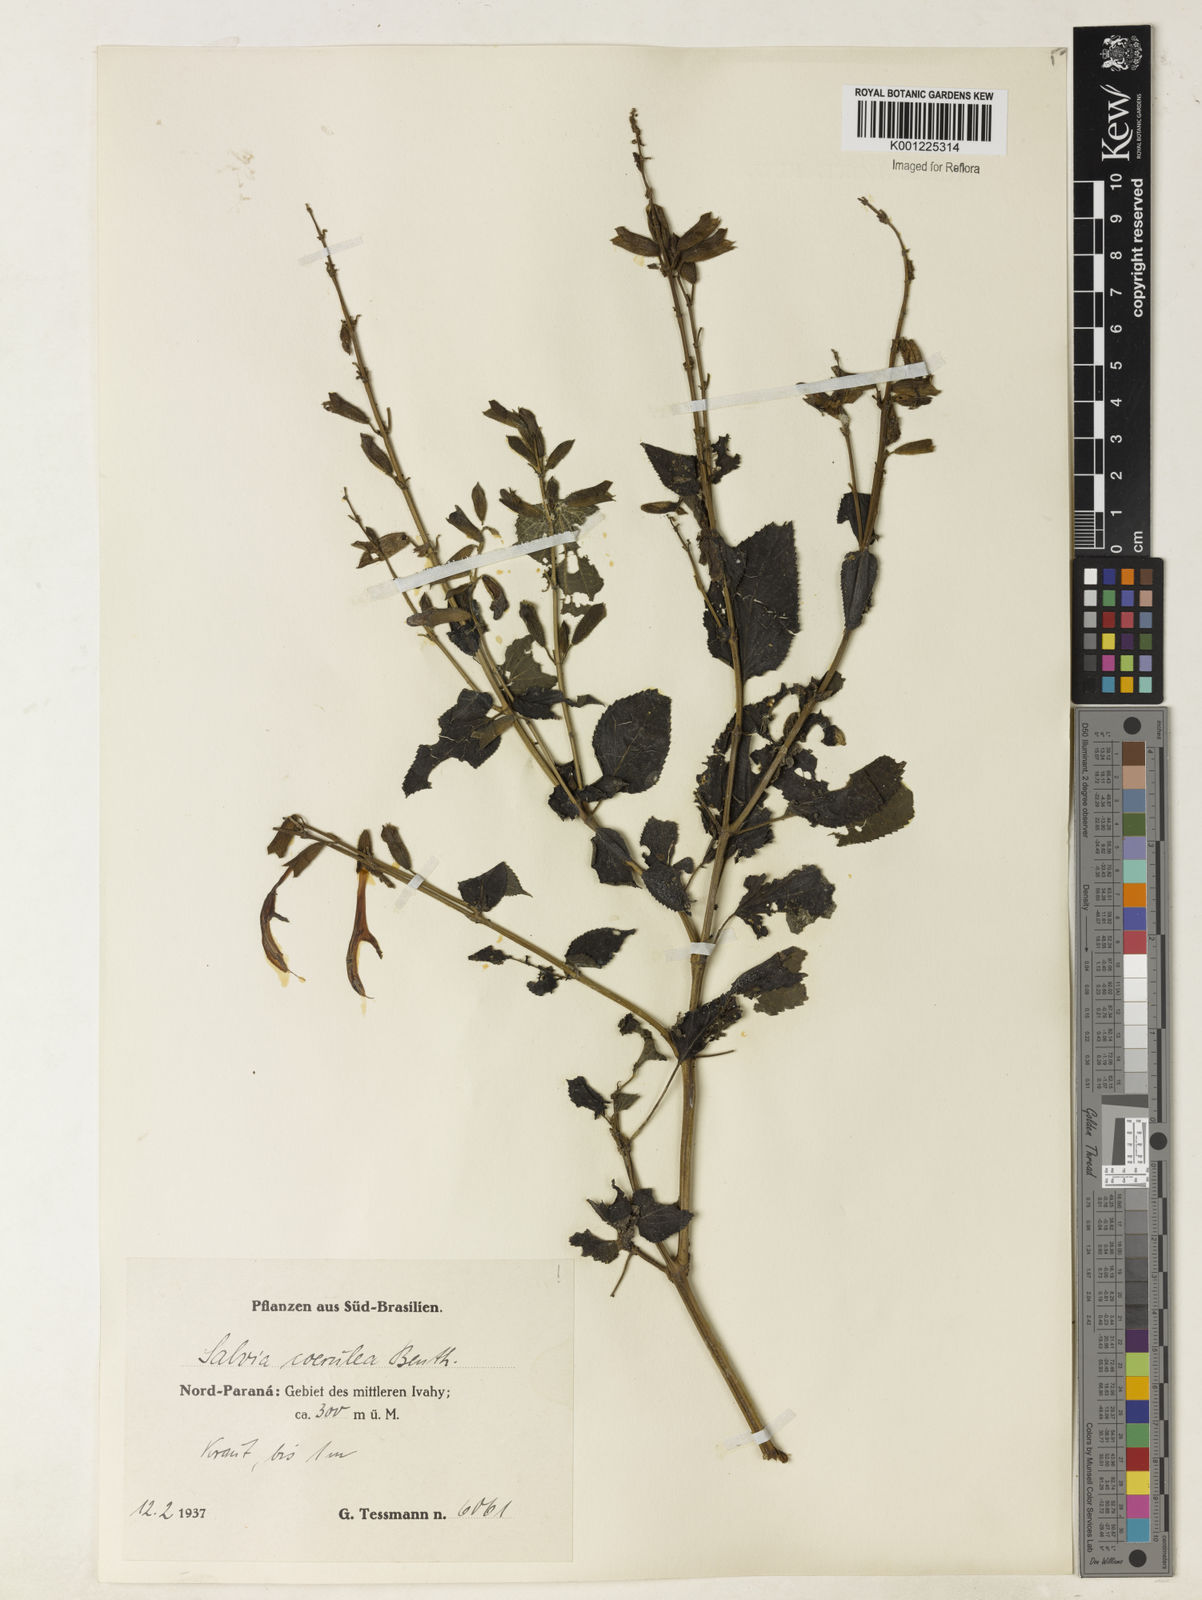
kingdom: Plantae
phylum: Tracheophyta
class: Magnoliopsida
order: Lamiales
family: Lamiaceae
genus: Salvia
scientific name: Salvia guaranitica
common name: Anise-scented sage
